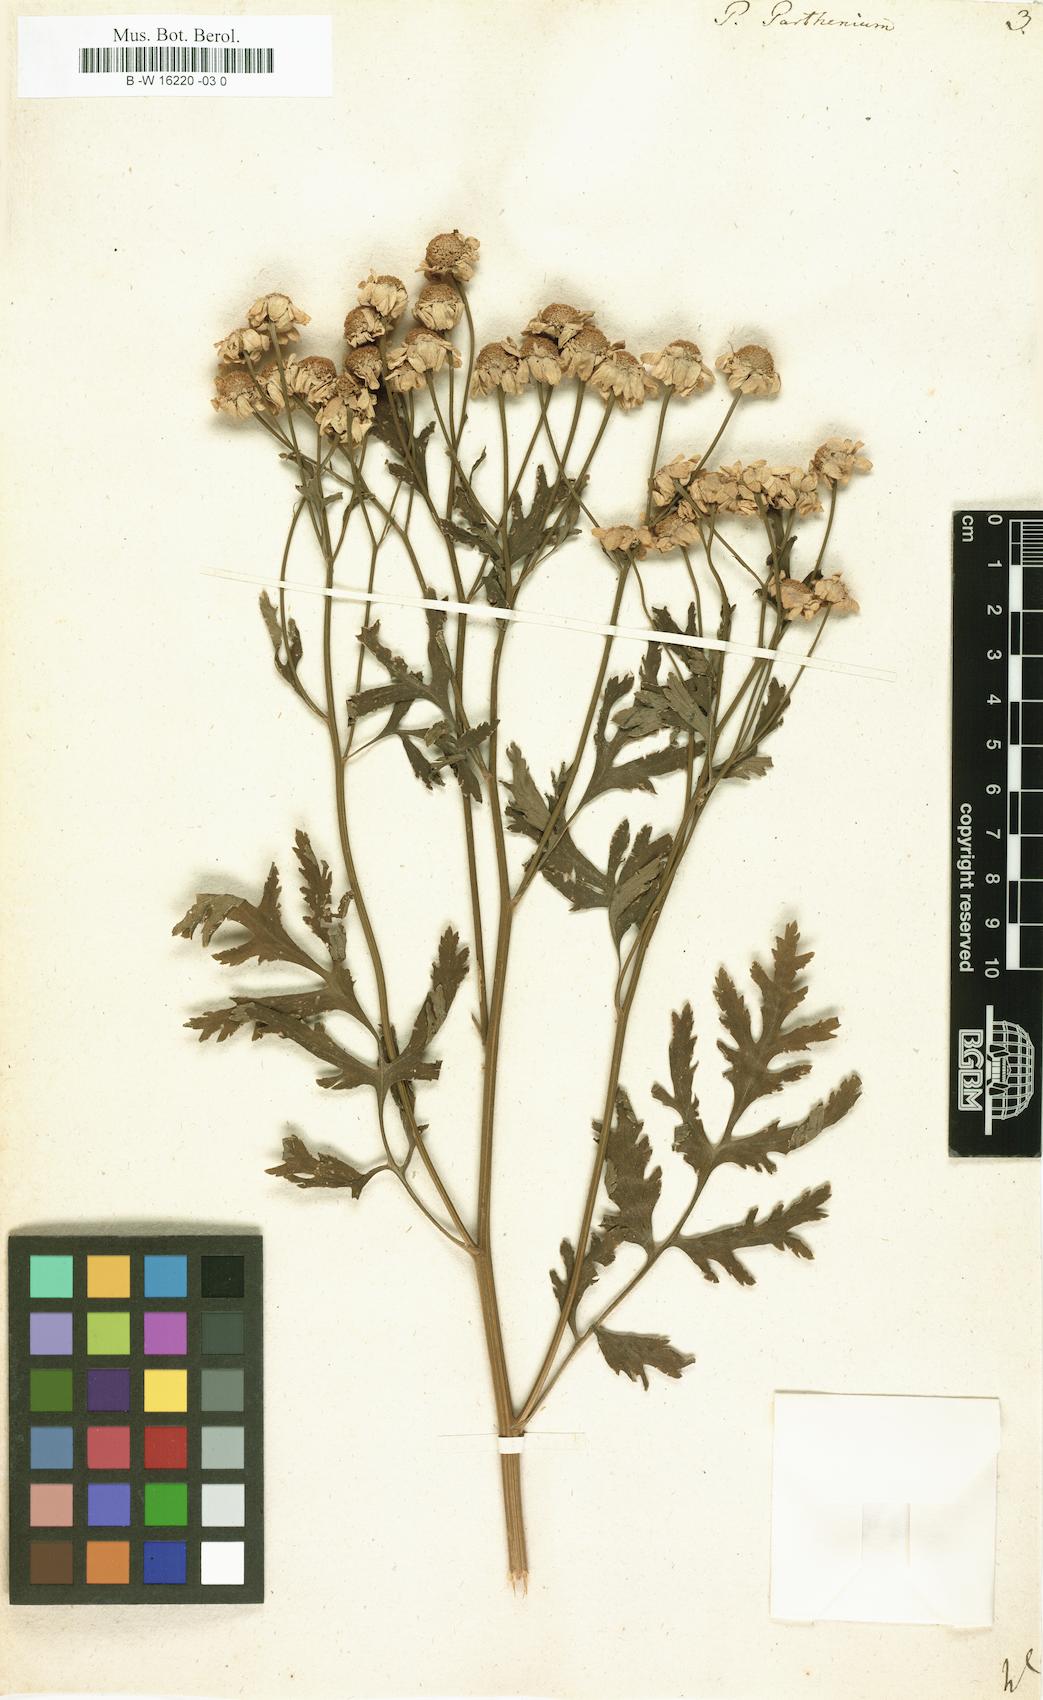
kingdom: Plantae
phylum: Tracheophyta
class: Magnoliopsida
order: Asterales
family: Asteraceae
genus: Tanacetum
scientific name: Tanacetum parthenium
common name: Feverfew
